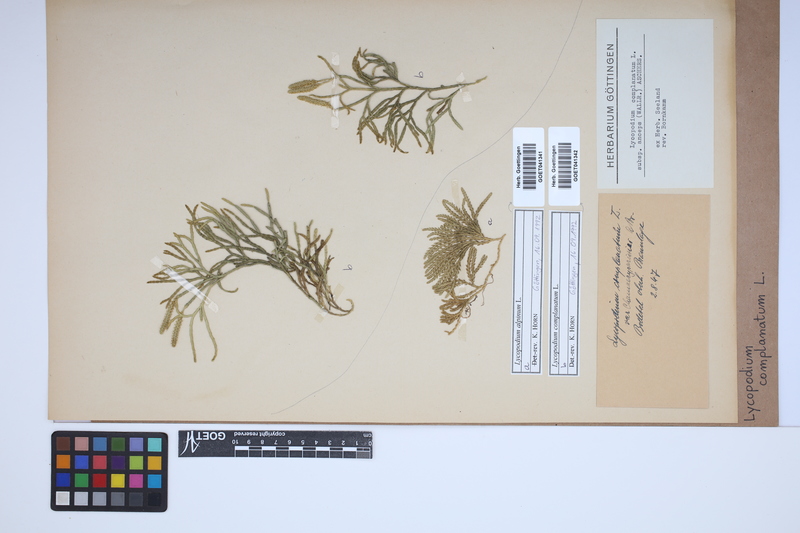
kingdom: Plantae
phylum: Tracheophyta
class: Lycopodiopsida
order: Lycopodiales
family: Lycopodiaceae
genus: Diphasiastrum
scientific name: Diphasiastrum alpinum
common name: Alpine clubmoss
